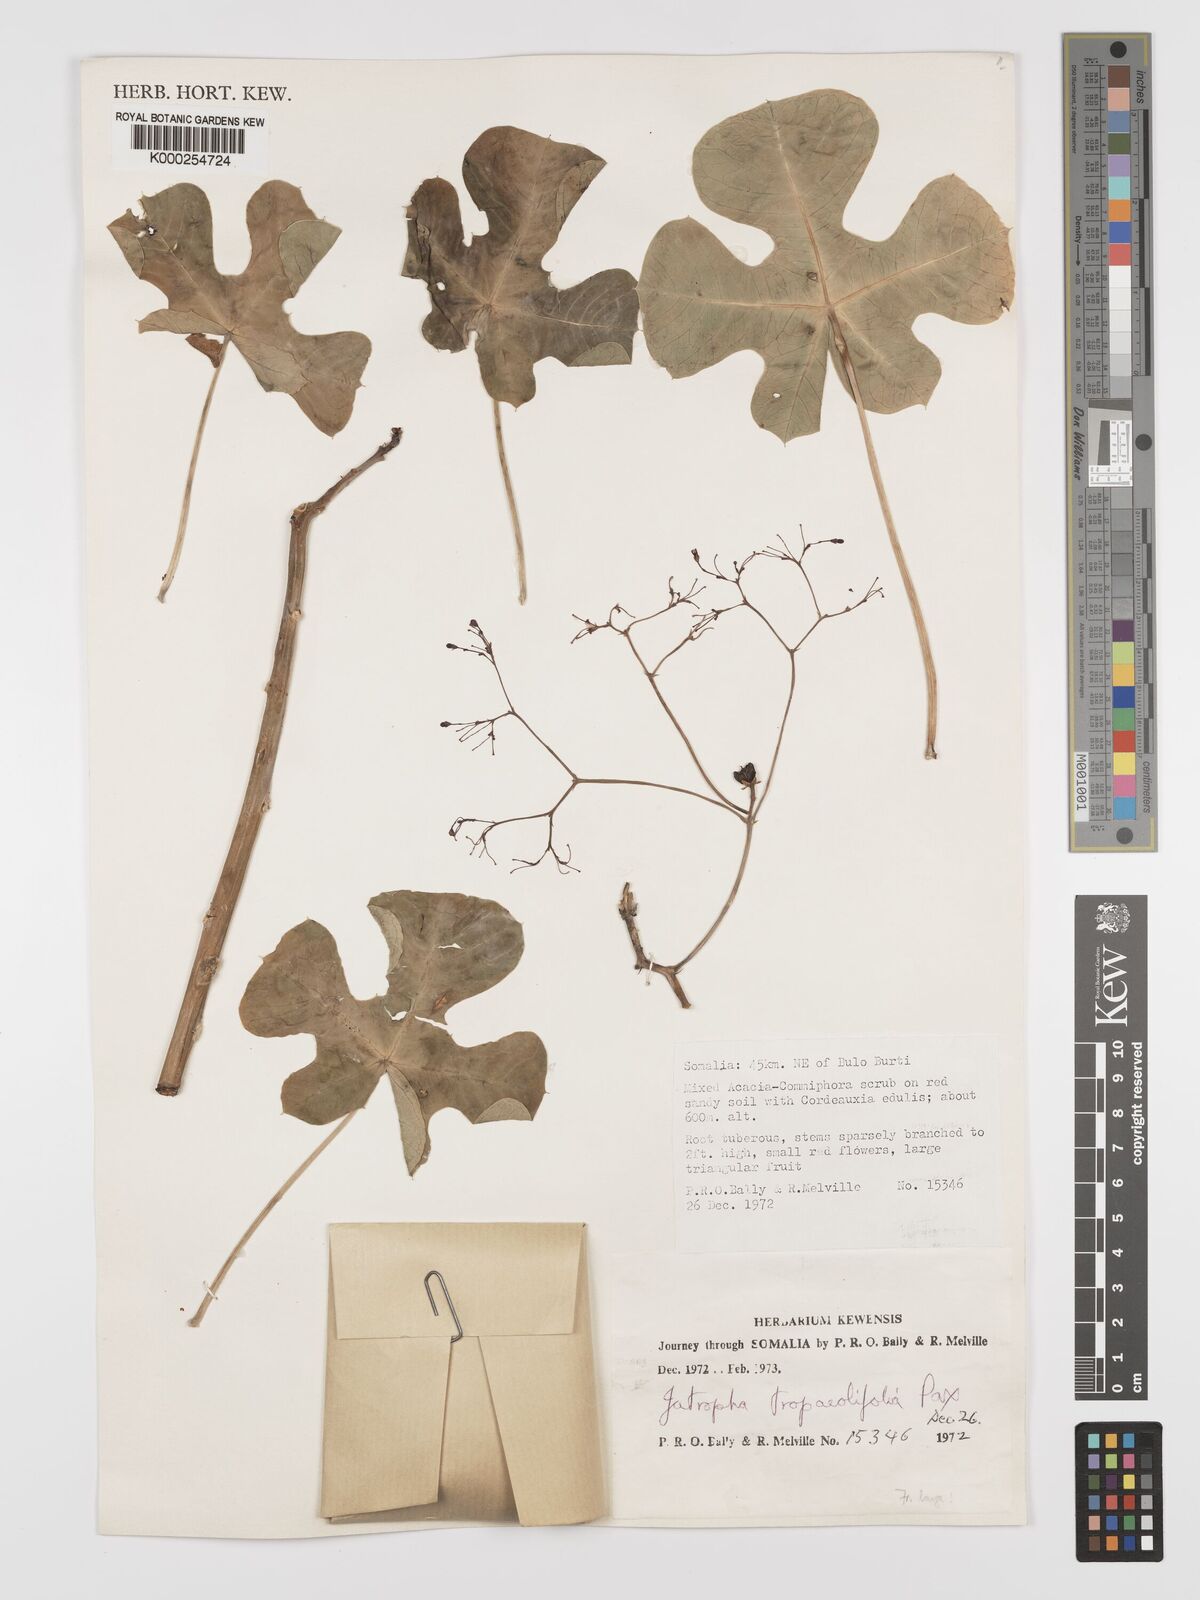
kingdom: Plantae
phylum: Tracheophyta
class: Magnoliopsida
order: Malpighiales
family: Euphorbiaceae
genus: Jatropha
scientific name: Jatropha tropaeolifolia
